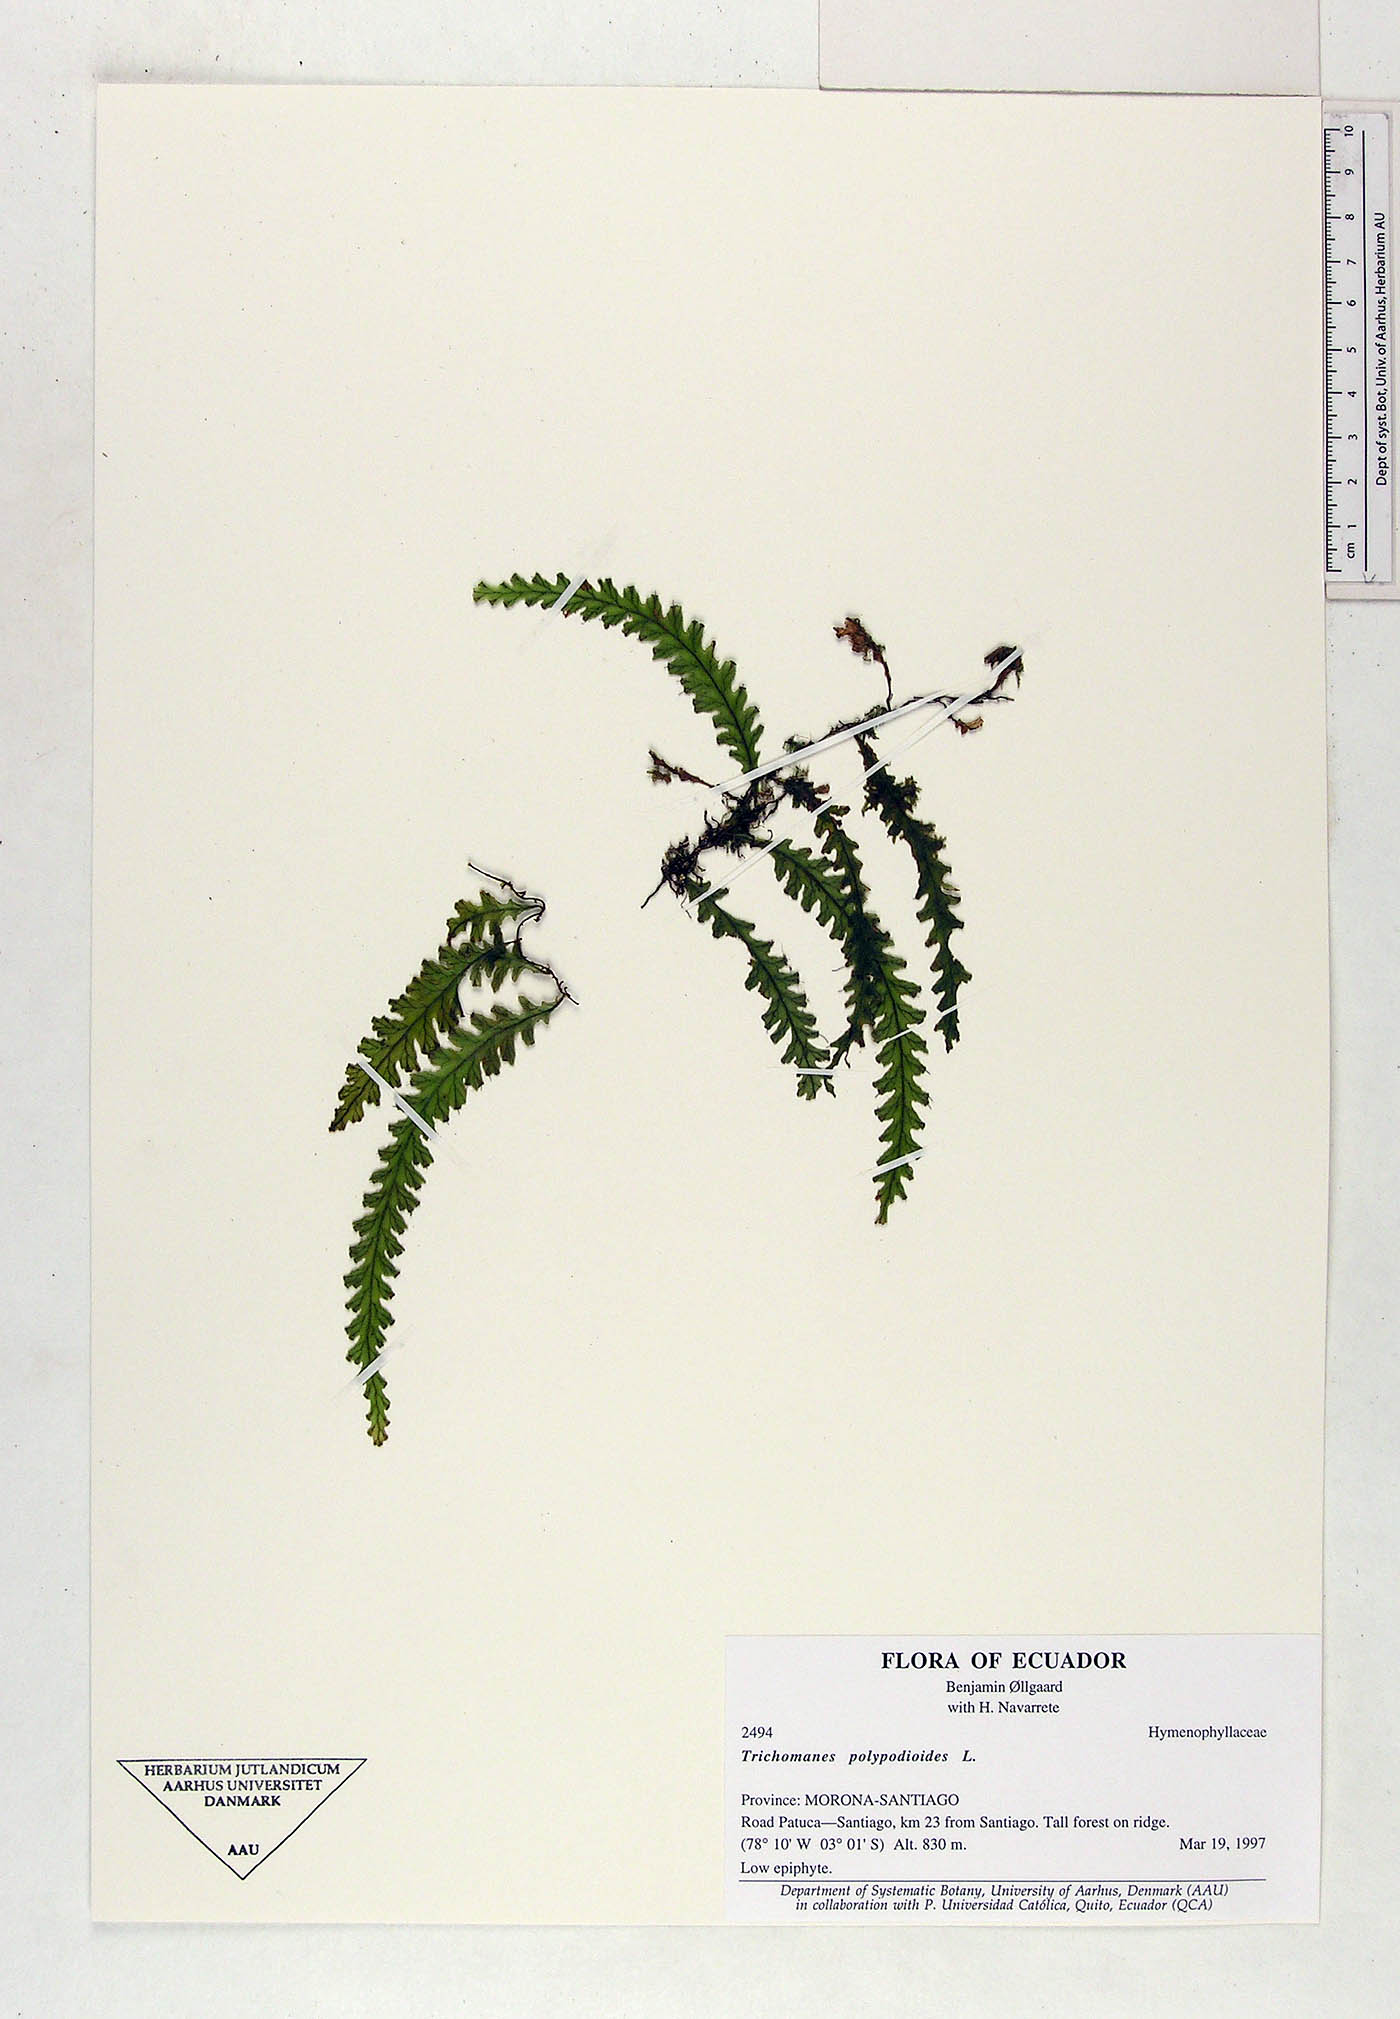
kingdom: Plantae
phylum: Tracheophyta
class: Polypodiopsida
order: Hymenophyllales
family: Hymenophyllaceae
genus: Trichomanes
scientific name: Trichomanes
